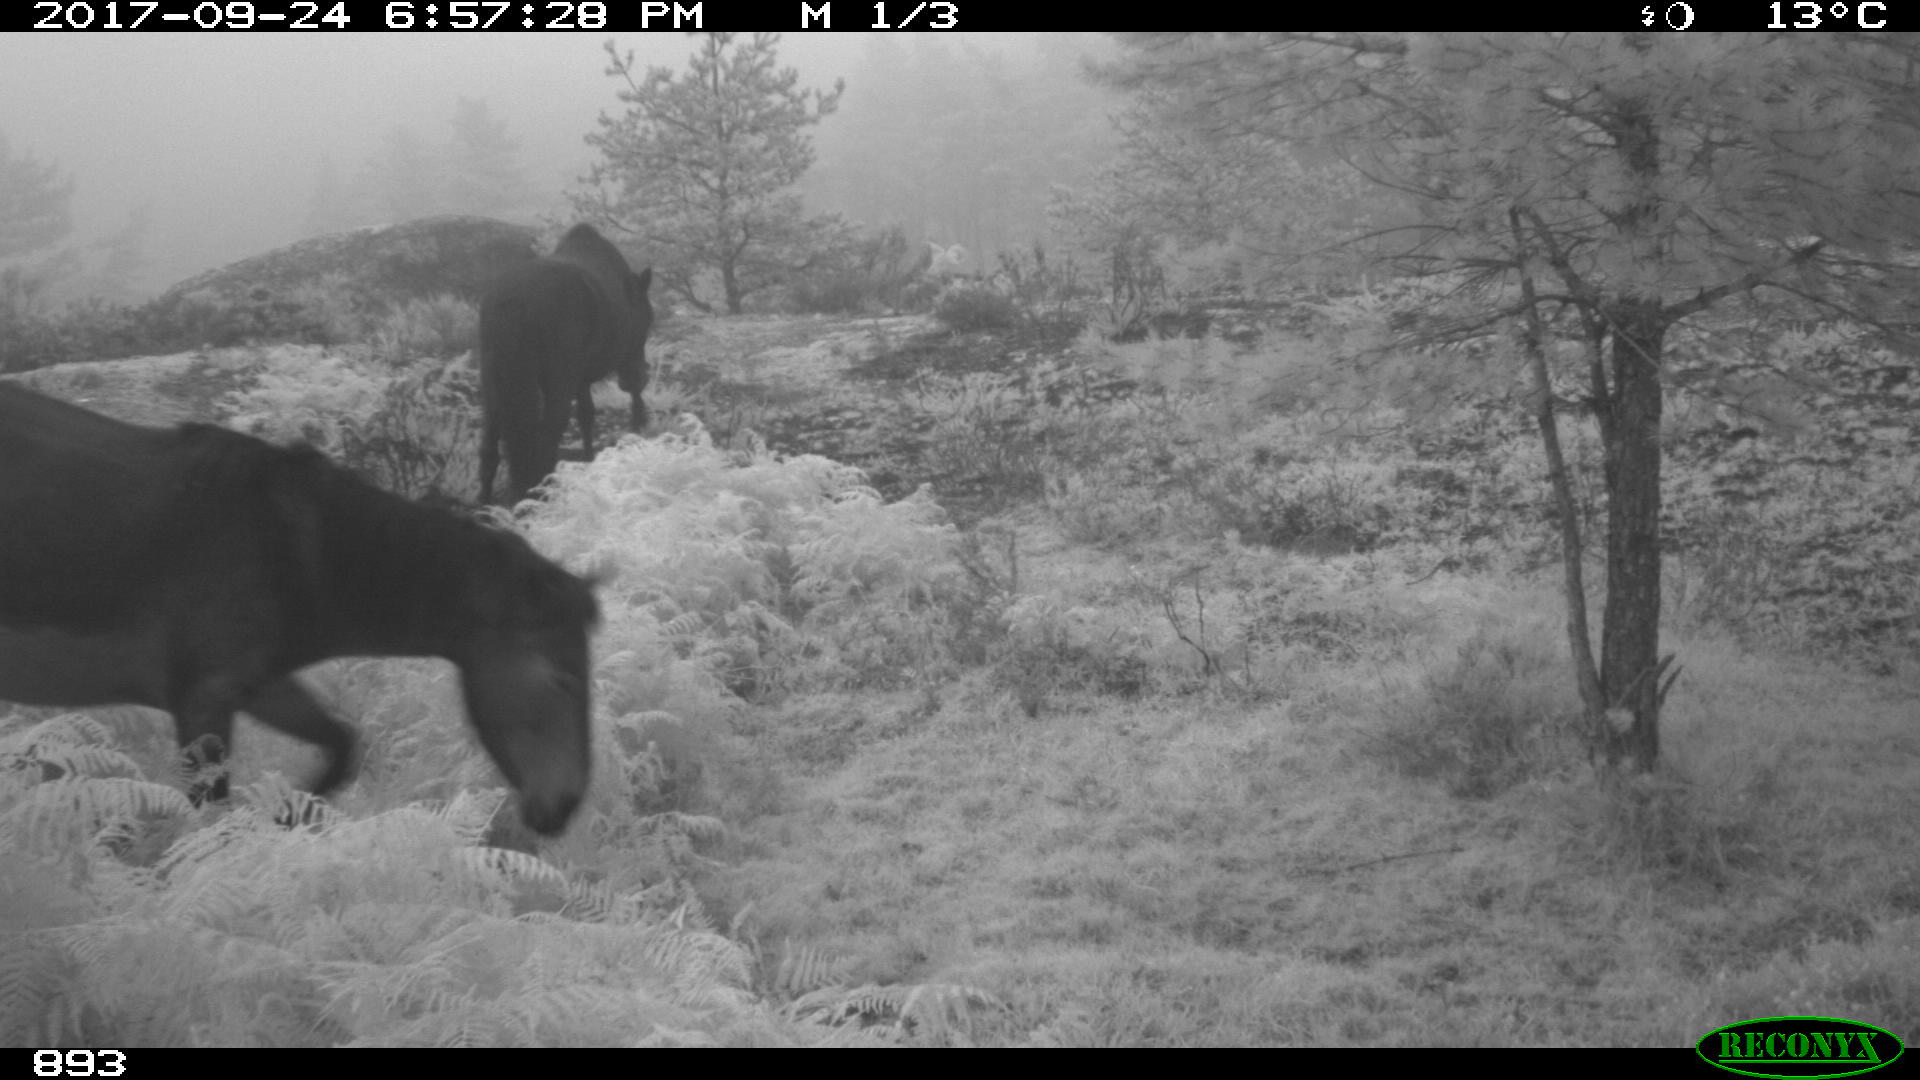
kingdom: Animalia
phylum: Chordata
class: Mammalia
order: Perissodactyla
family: Equidae
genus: Equus
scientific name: Equus caballus
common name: Horse
